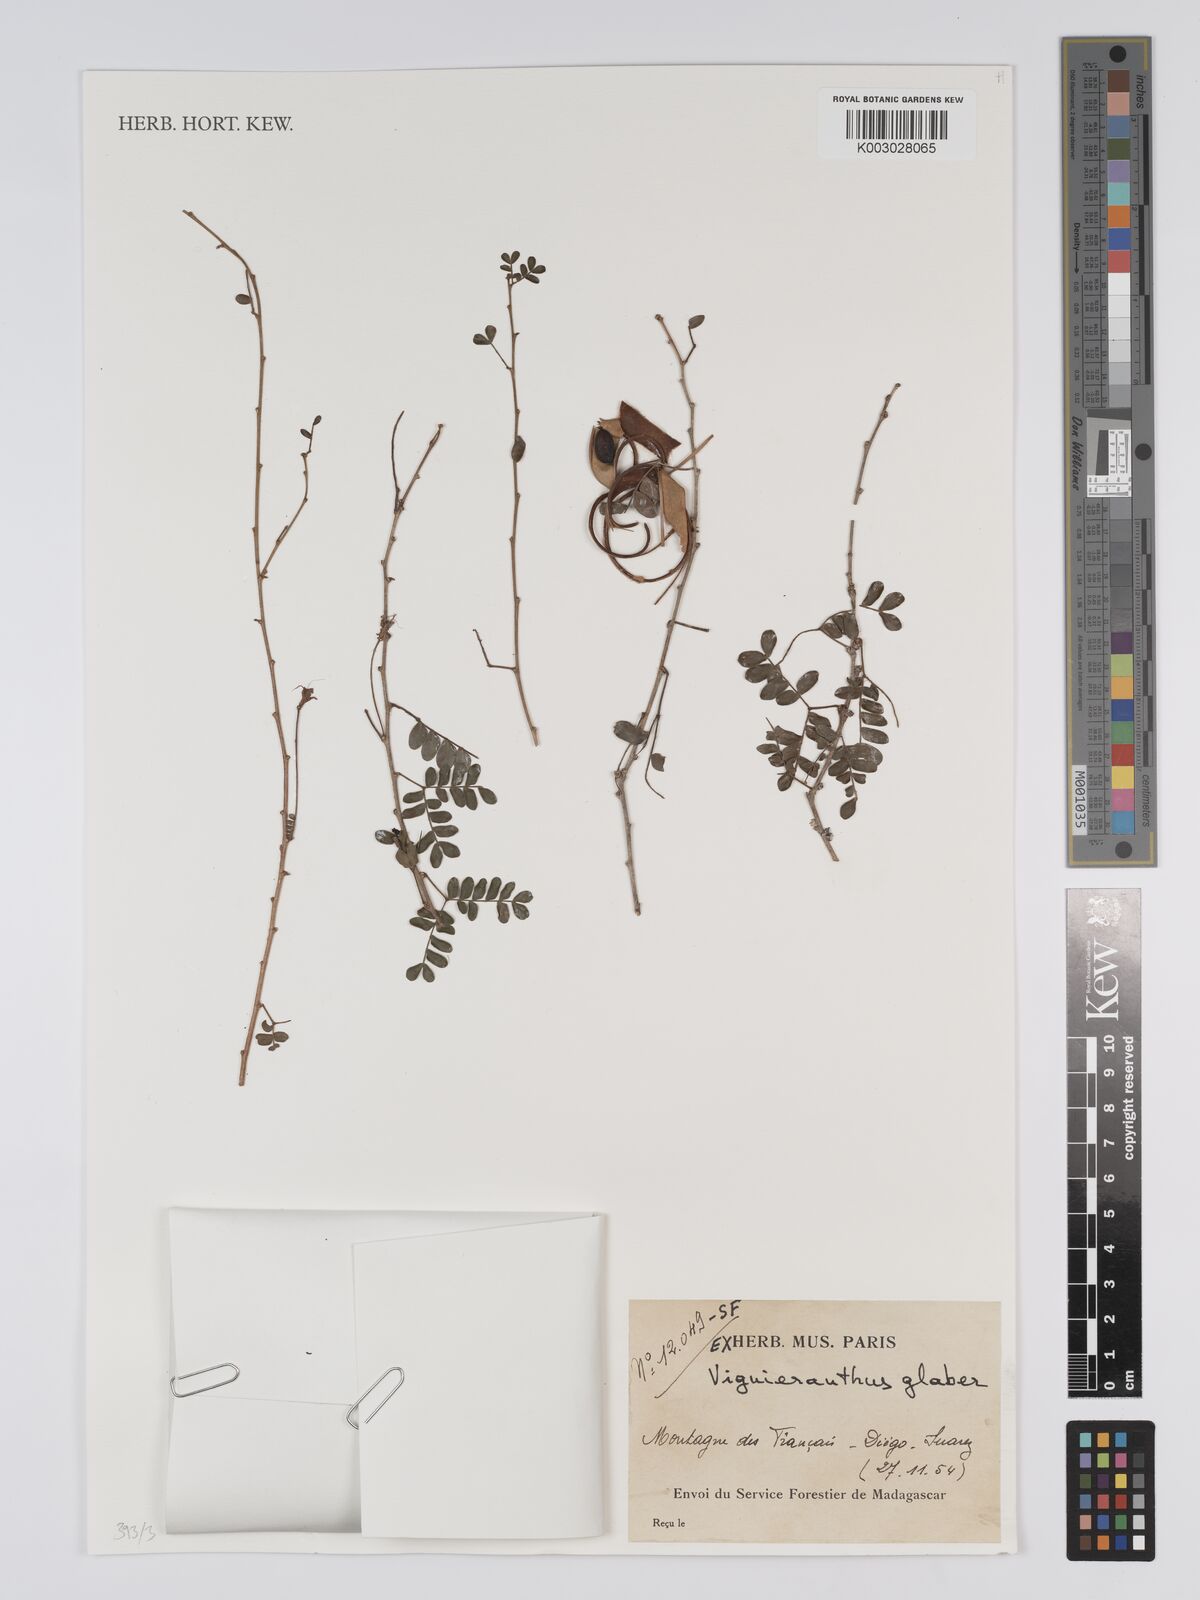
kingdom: Plantae
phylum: Tracheophyta
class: Magnoliopsida
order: Fabales
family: Fabaceae
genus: Viguieranthus
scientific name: Viguieranthus glaber
